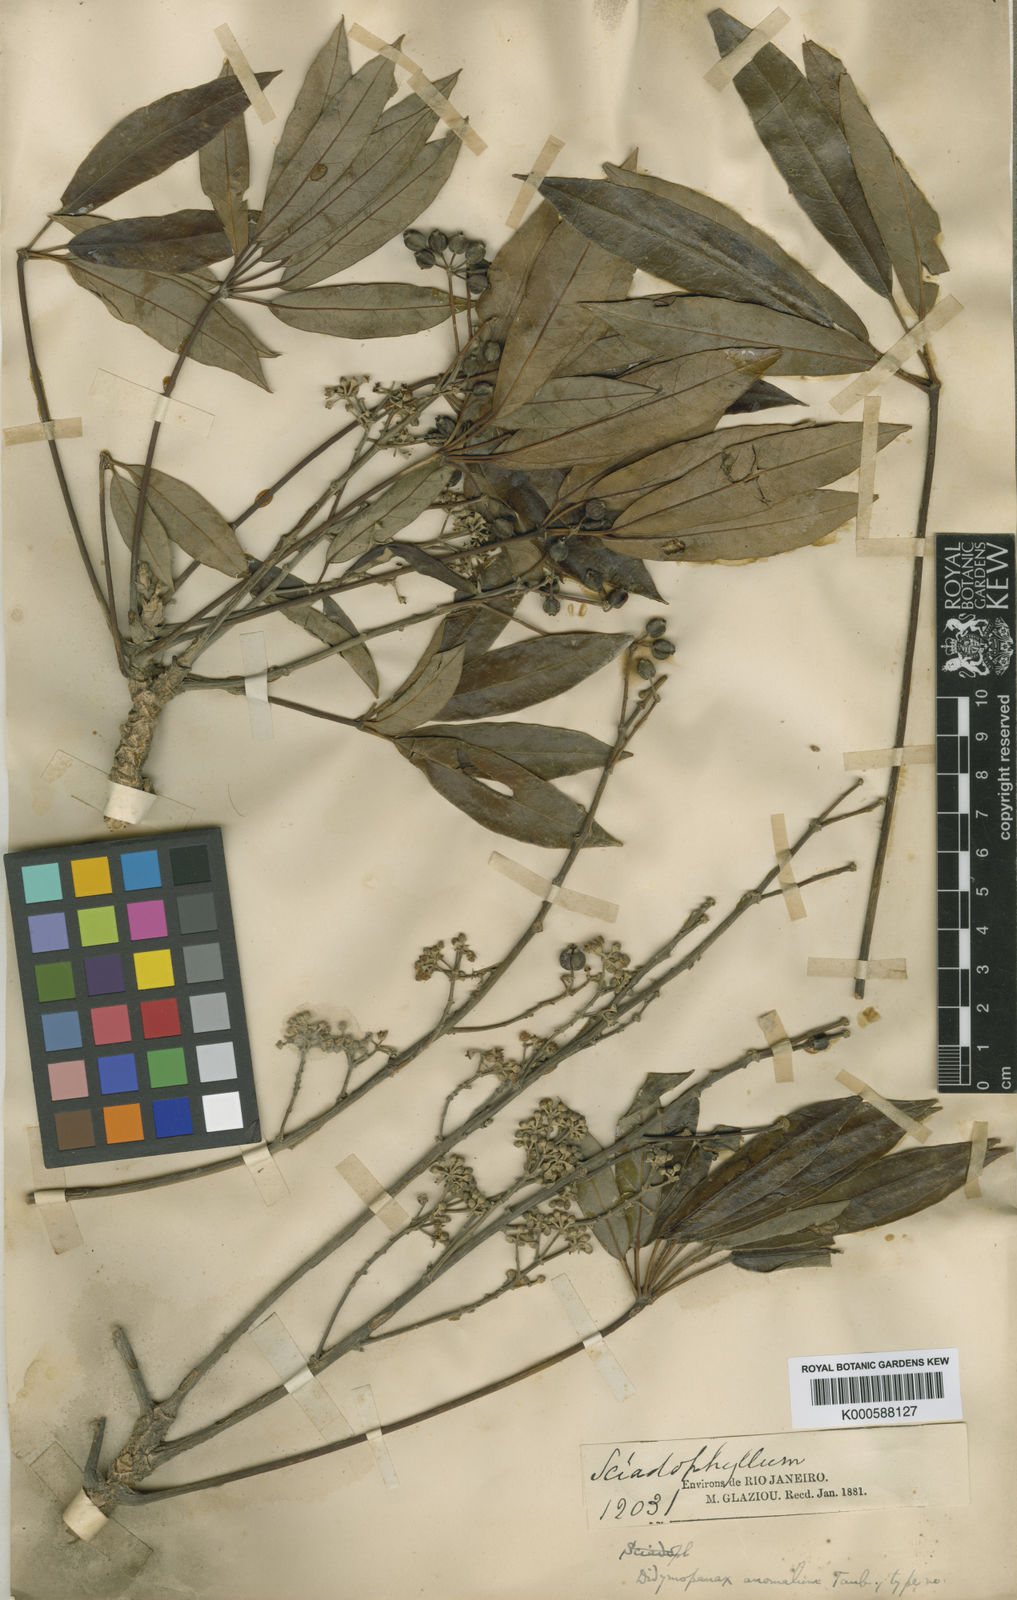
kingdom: Plantae
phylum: Tracheophyta
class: Magnoliopsida
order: Apiales
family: Araliaceae
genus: Didymopanax
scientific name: Didymopanax angustissimus
